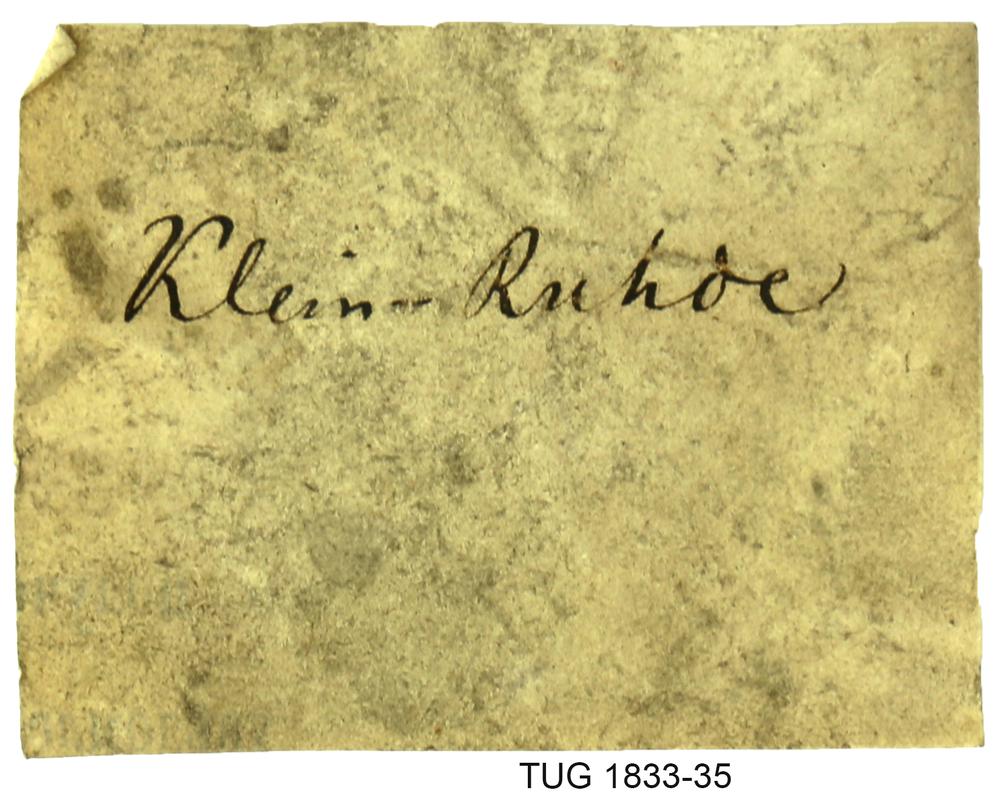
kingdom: Animalia
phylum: Porifera
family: Stromatoporidae
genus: Stromatopora
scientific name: Stromatopora
